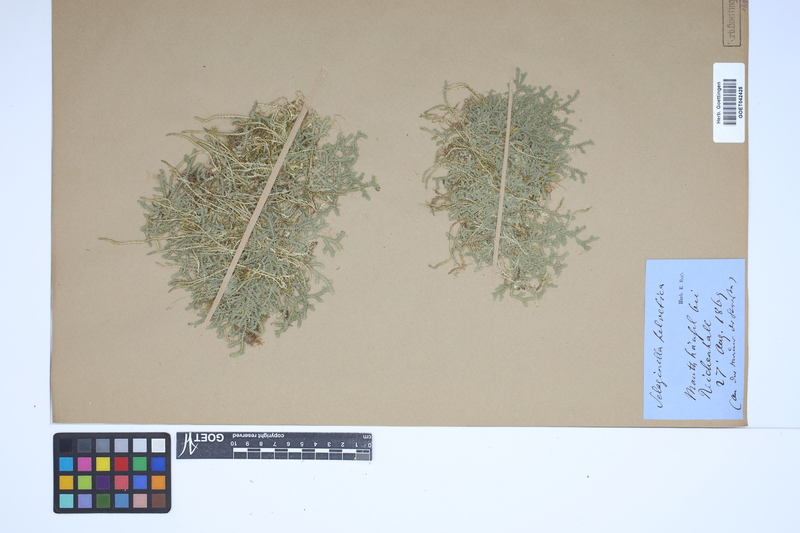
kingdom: Plantae
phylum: Tracheophyta
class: Lycopodiopsida
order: Selaginellales
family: Selaginellaceae
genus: Selaginella
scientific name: Selaginella helvetica
